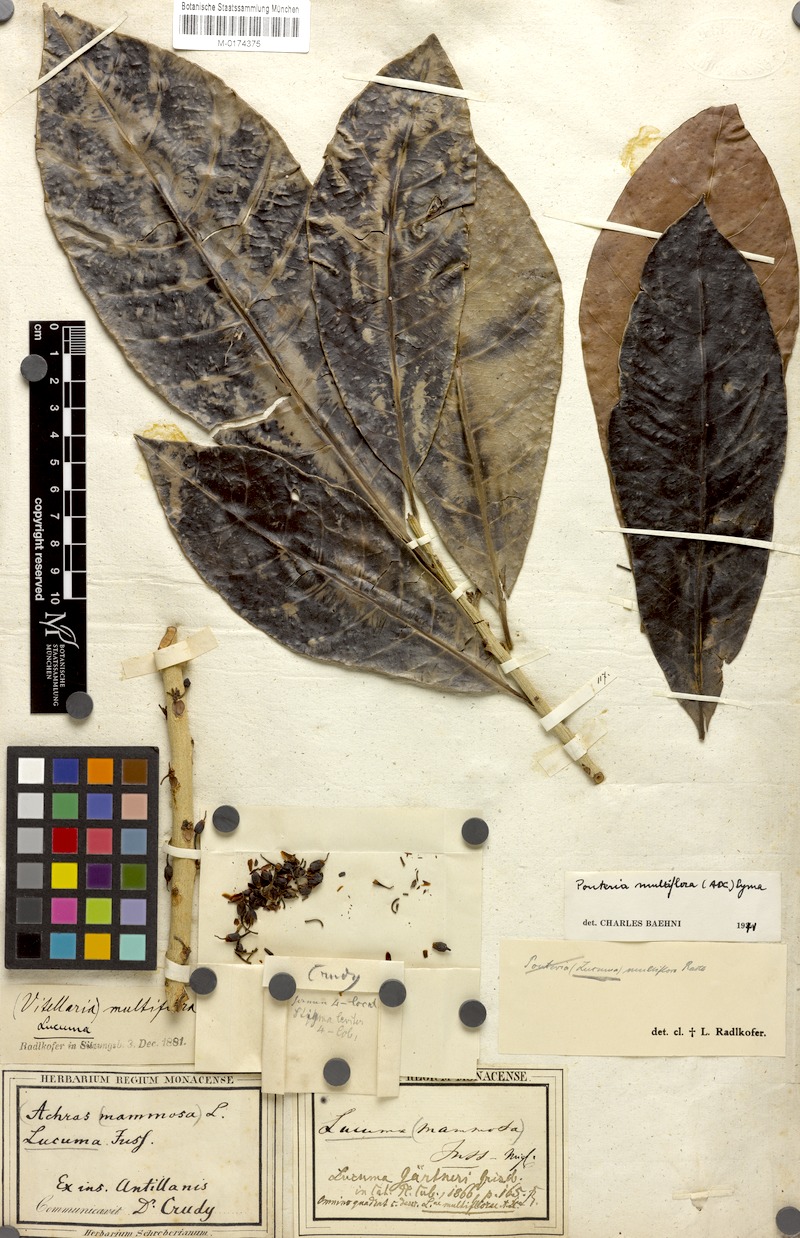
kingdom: Plantae
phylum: Tracheophyta
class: Magnoliopsida
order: Ericales
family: Sapotaceae
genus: Pouteria
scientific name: Pouteria multiflora
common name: Bullytree
